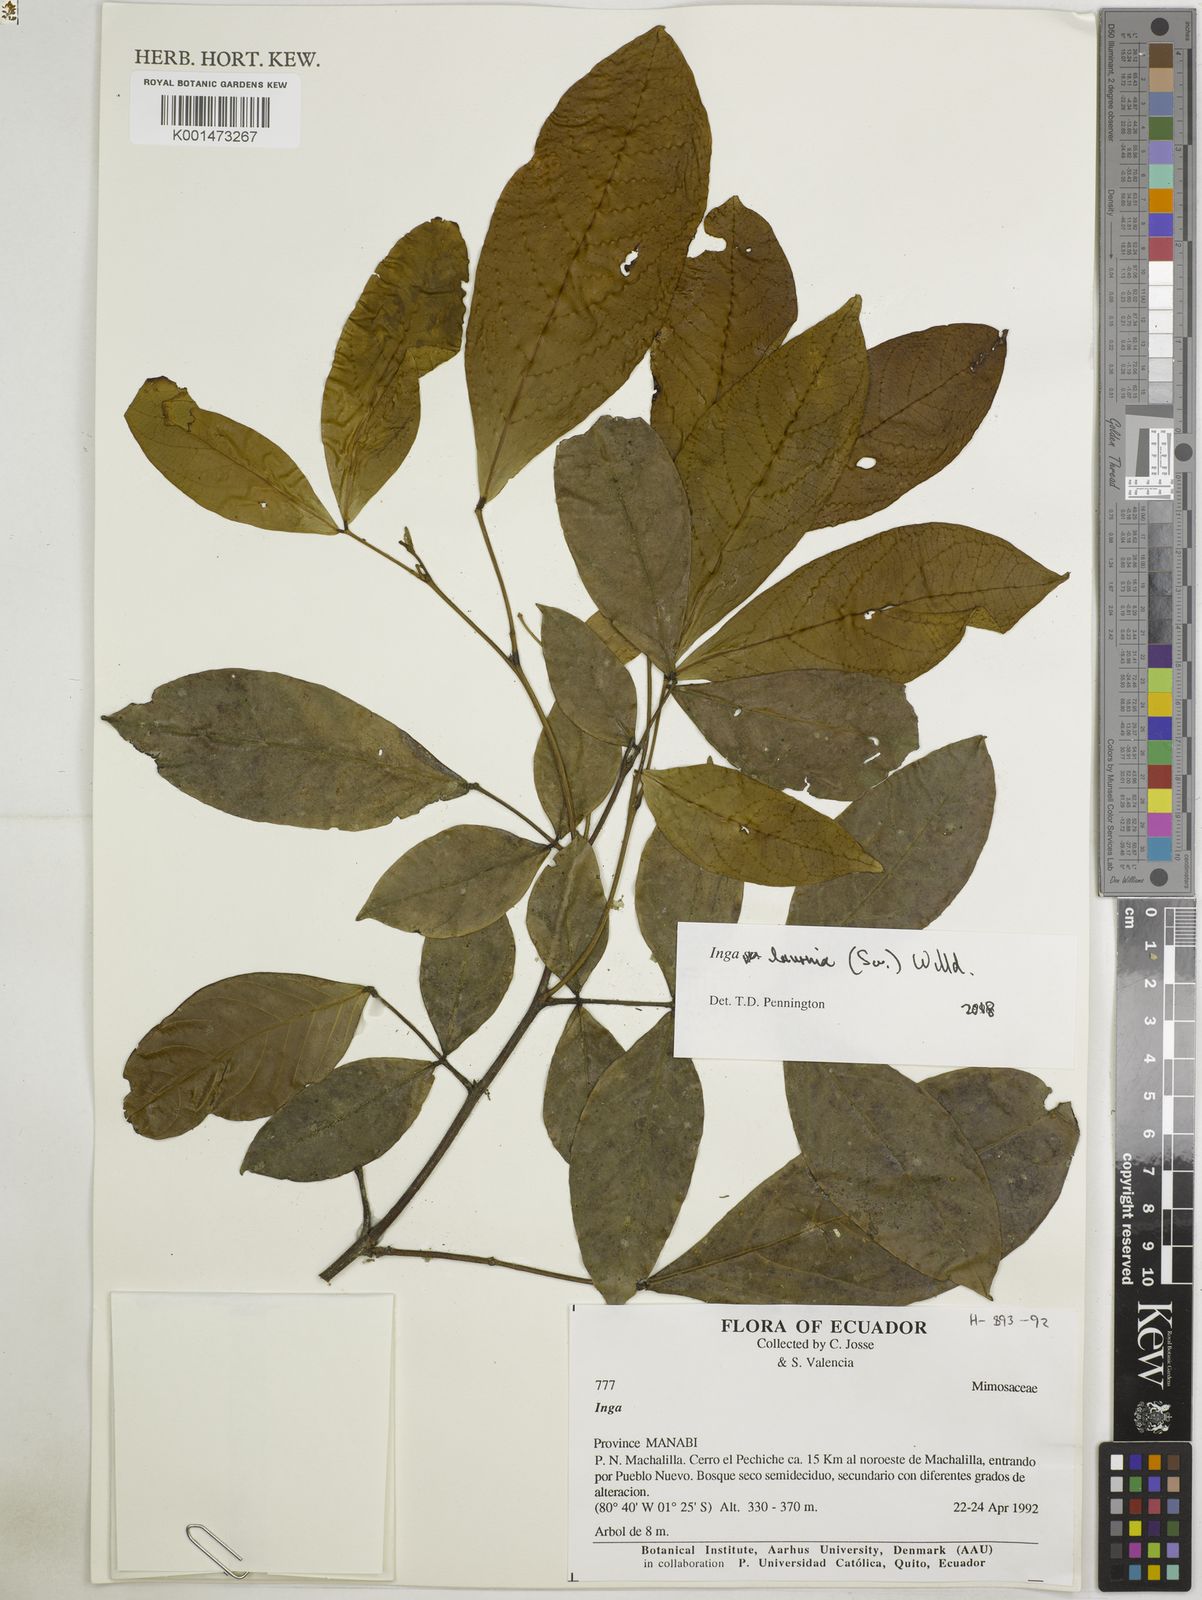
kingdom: Plantae
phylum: Tracheophyta
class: Magnoliopsida
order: Fabales
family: Fabaceae
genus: Inga
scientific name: Inga laurina
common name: Red wood
